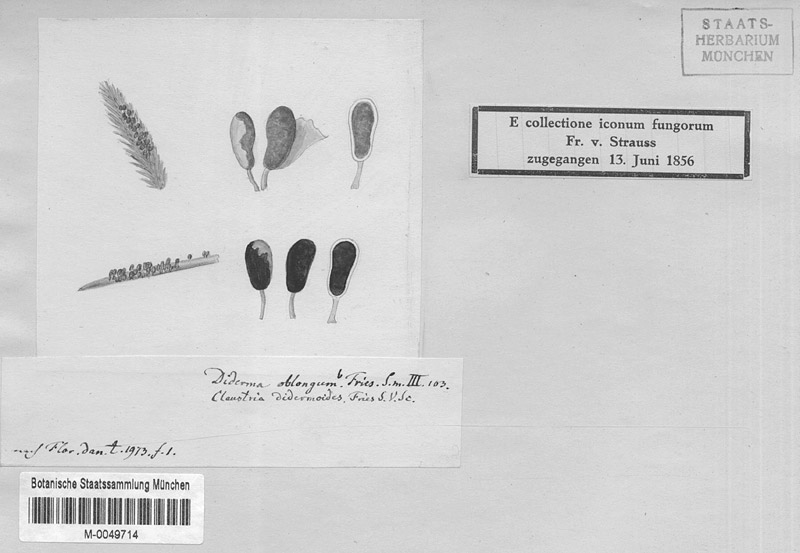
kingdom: Protozoa
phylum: Mycetozoa
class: Myxomycetes
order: Physarales
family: Physaraceae
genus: Physarum
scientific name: Physarum didermoides
